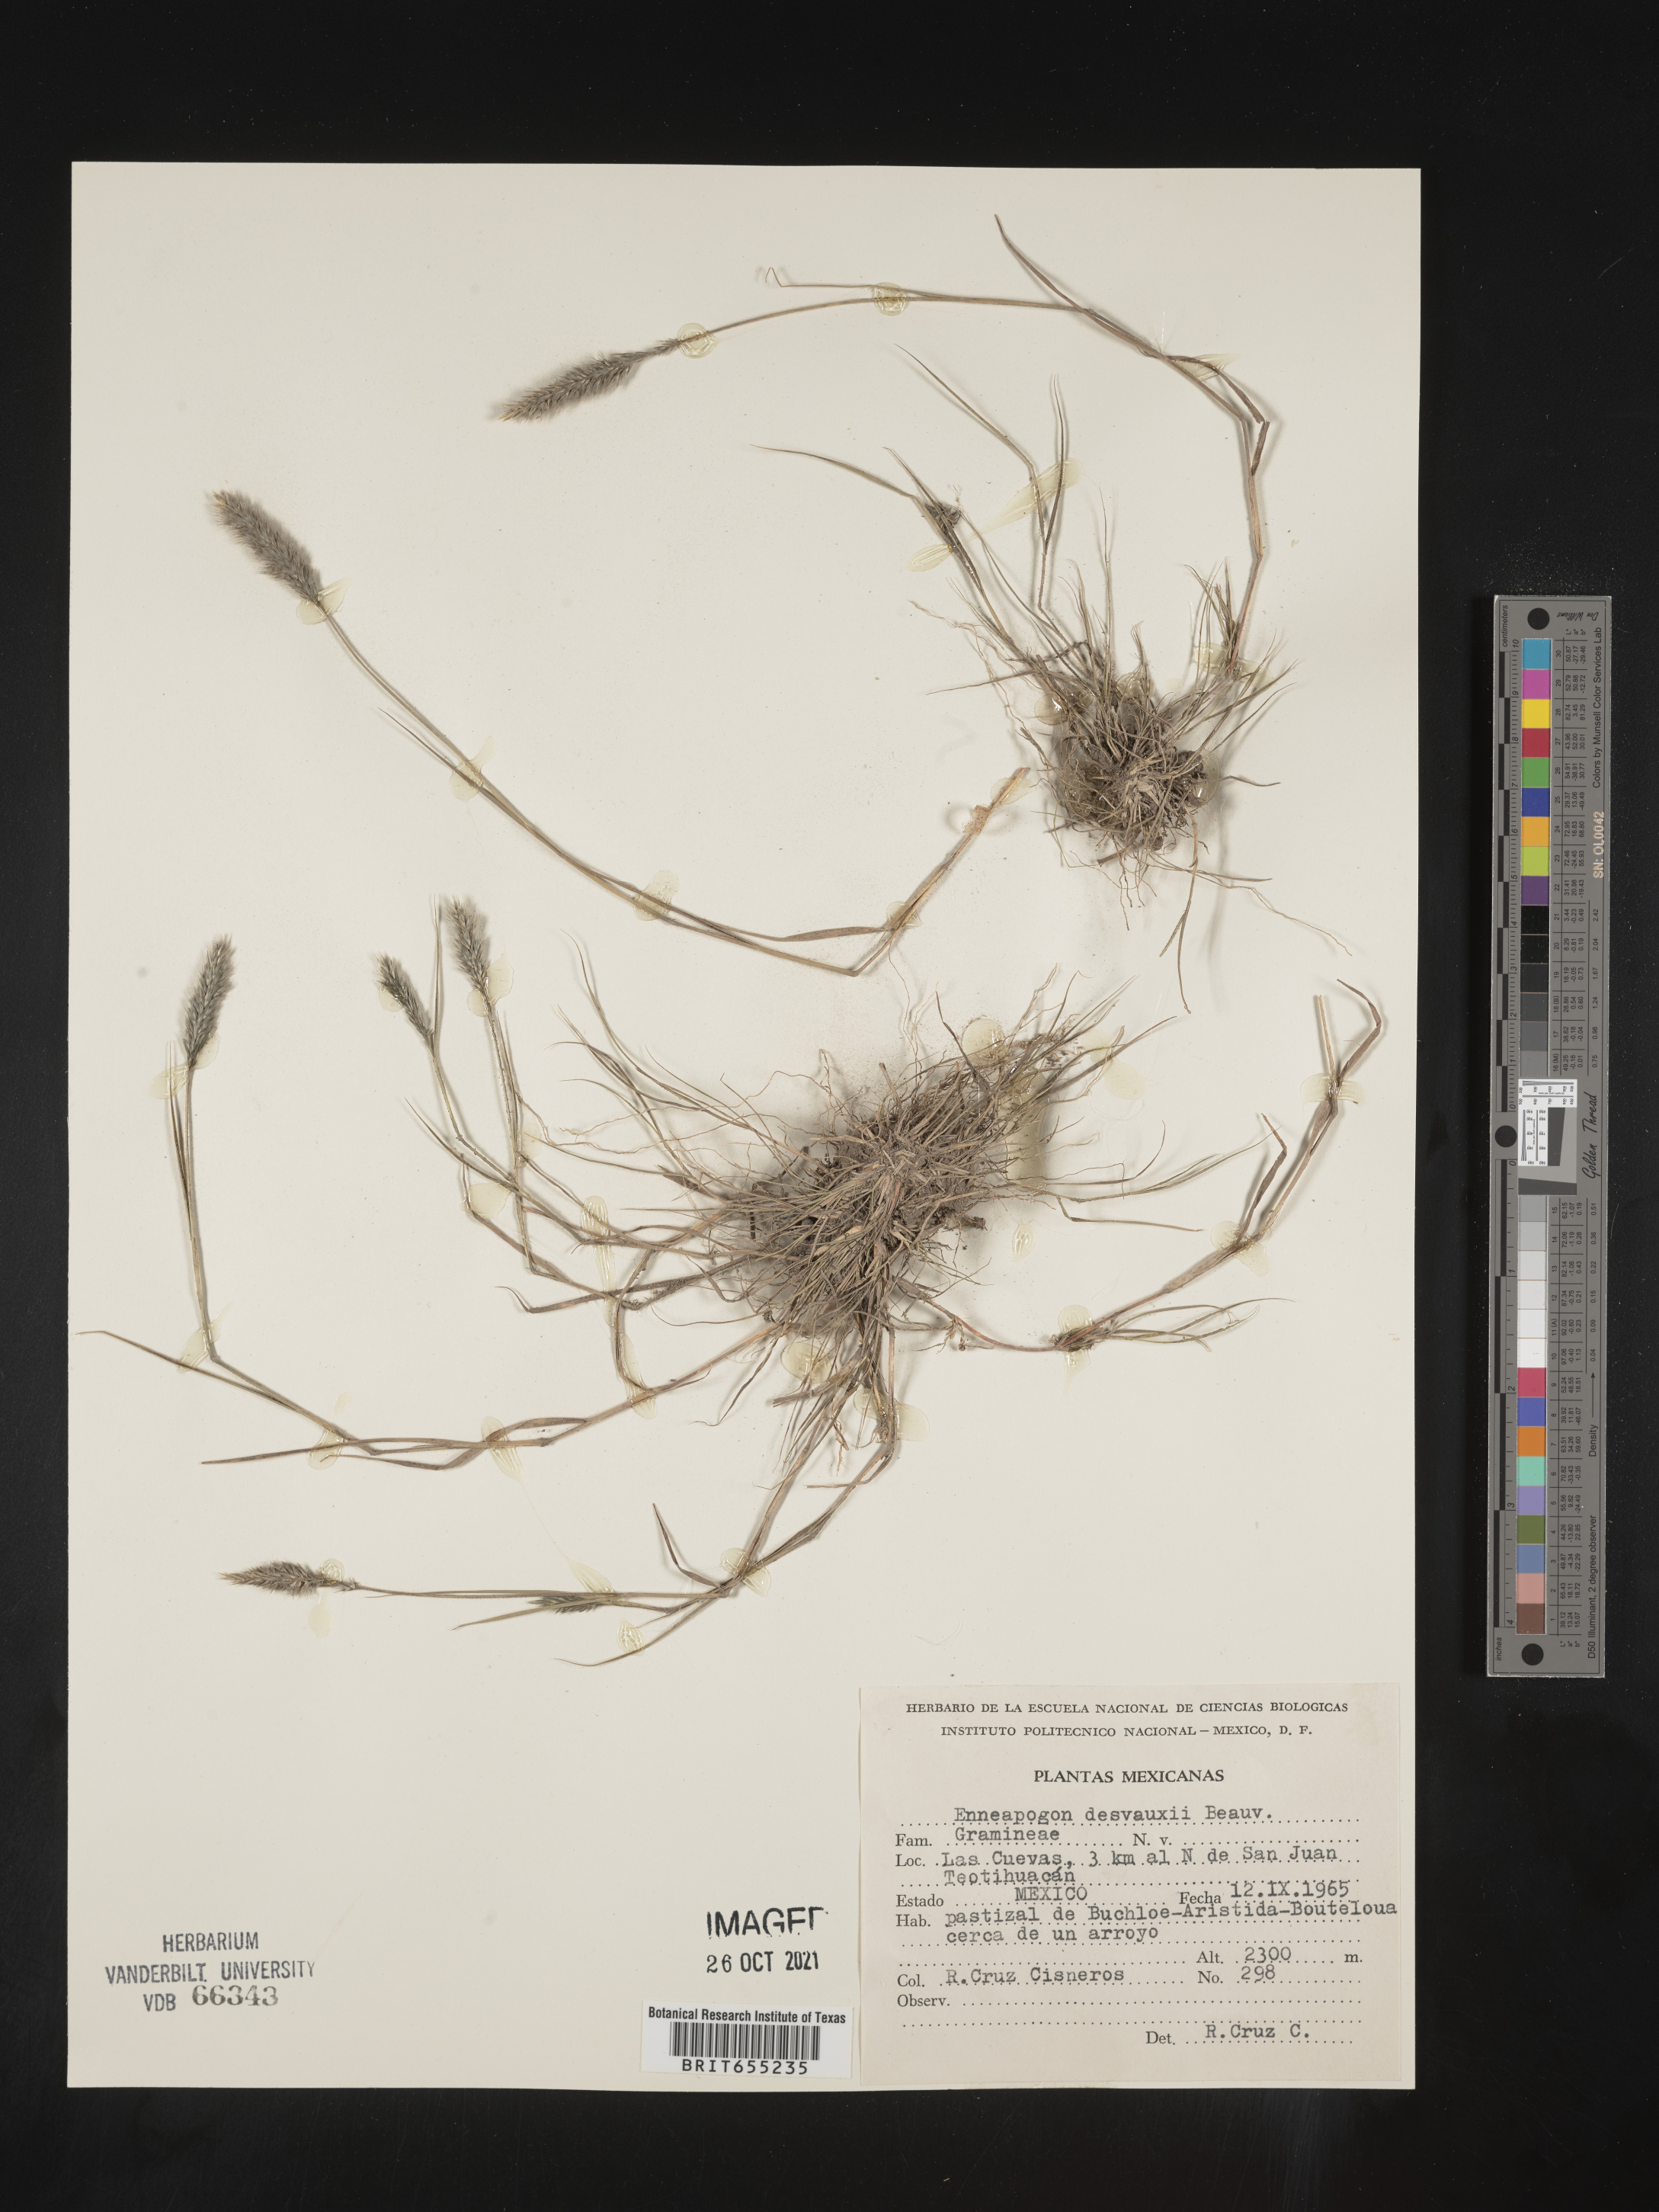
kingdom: Plantae
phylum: Tracheophyta
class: Liliopsida
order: Poales
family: Poaceae
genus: Enneapogon
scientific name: Enneapogon
